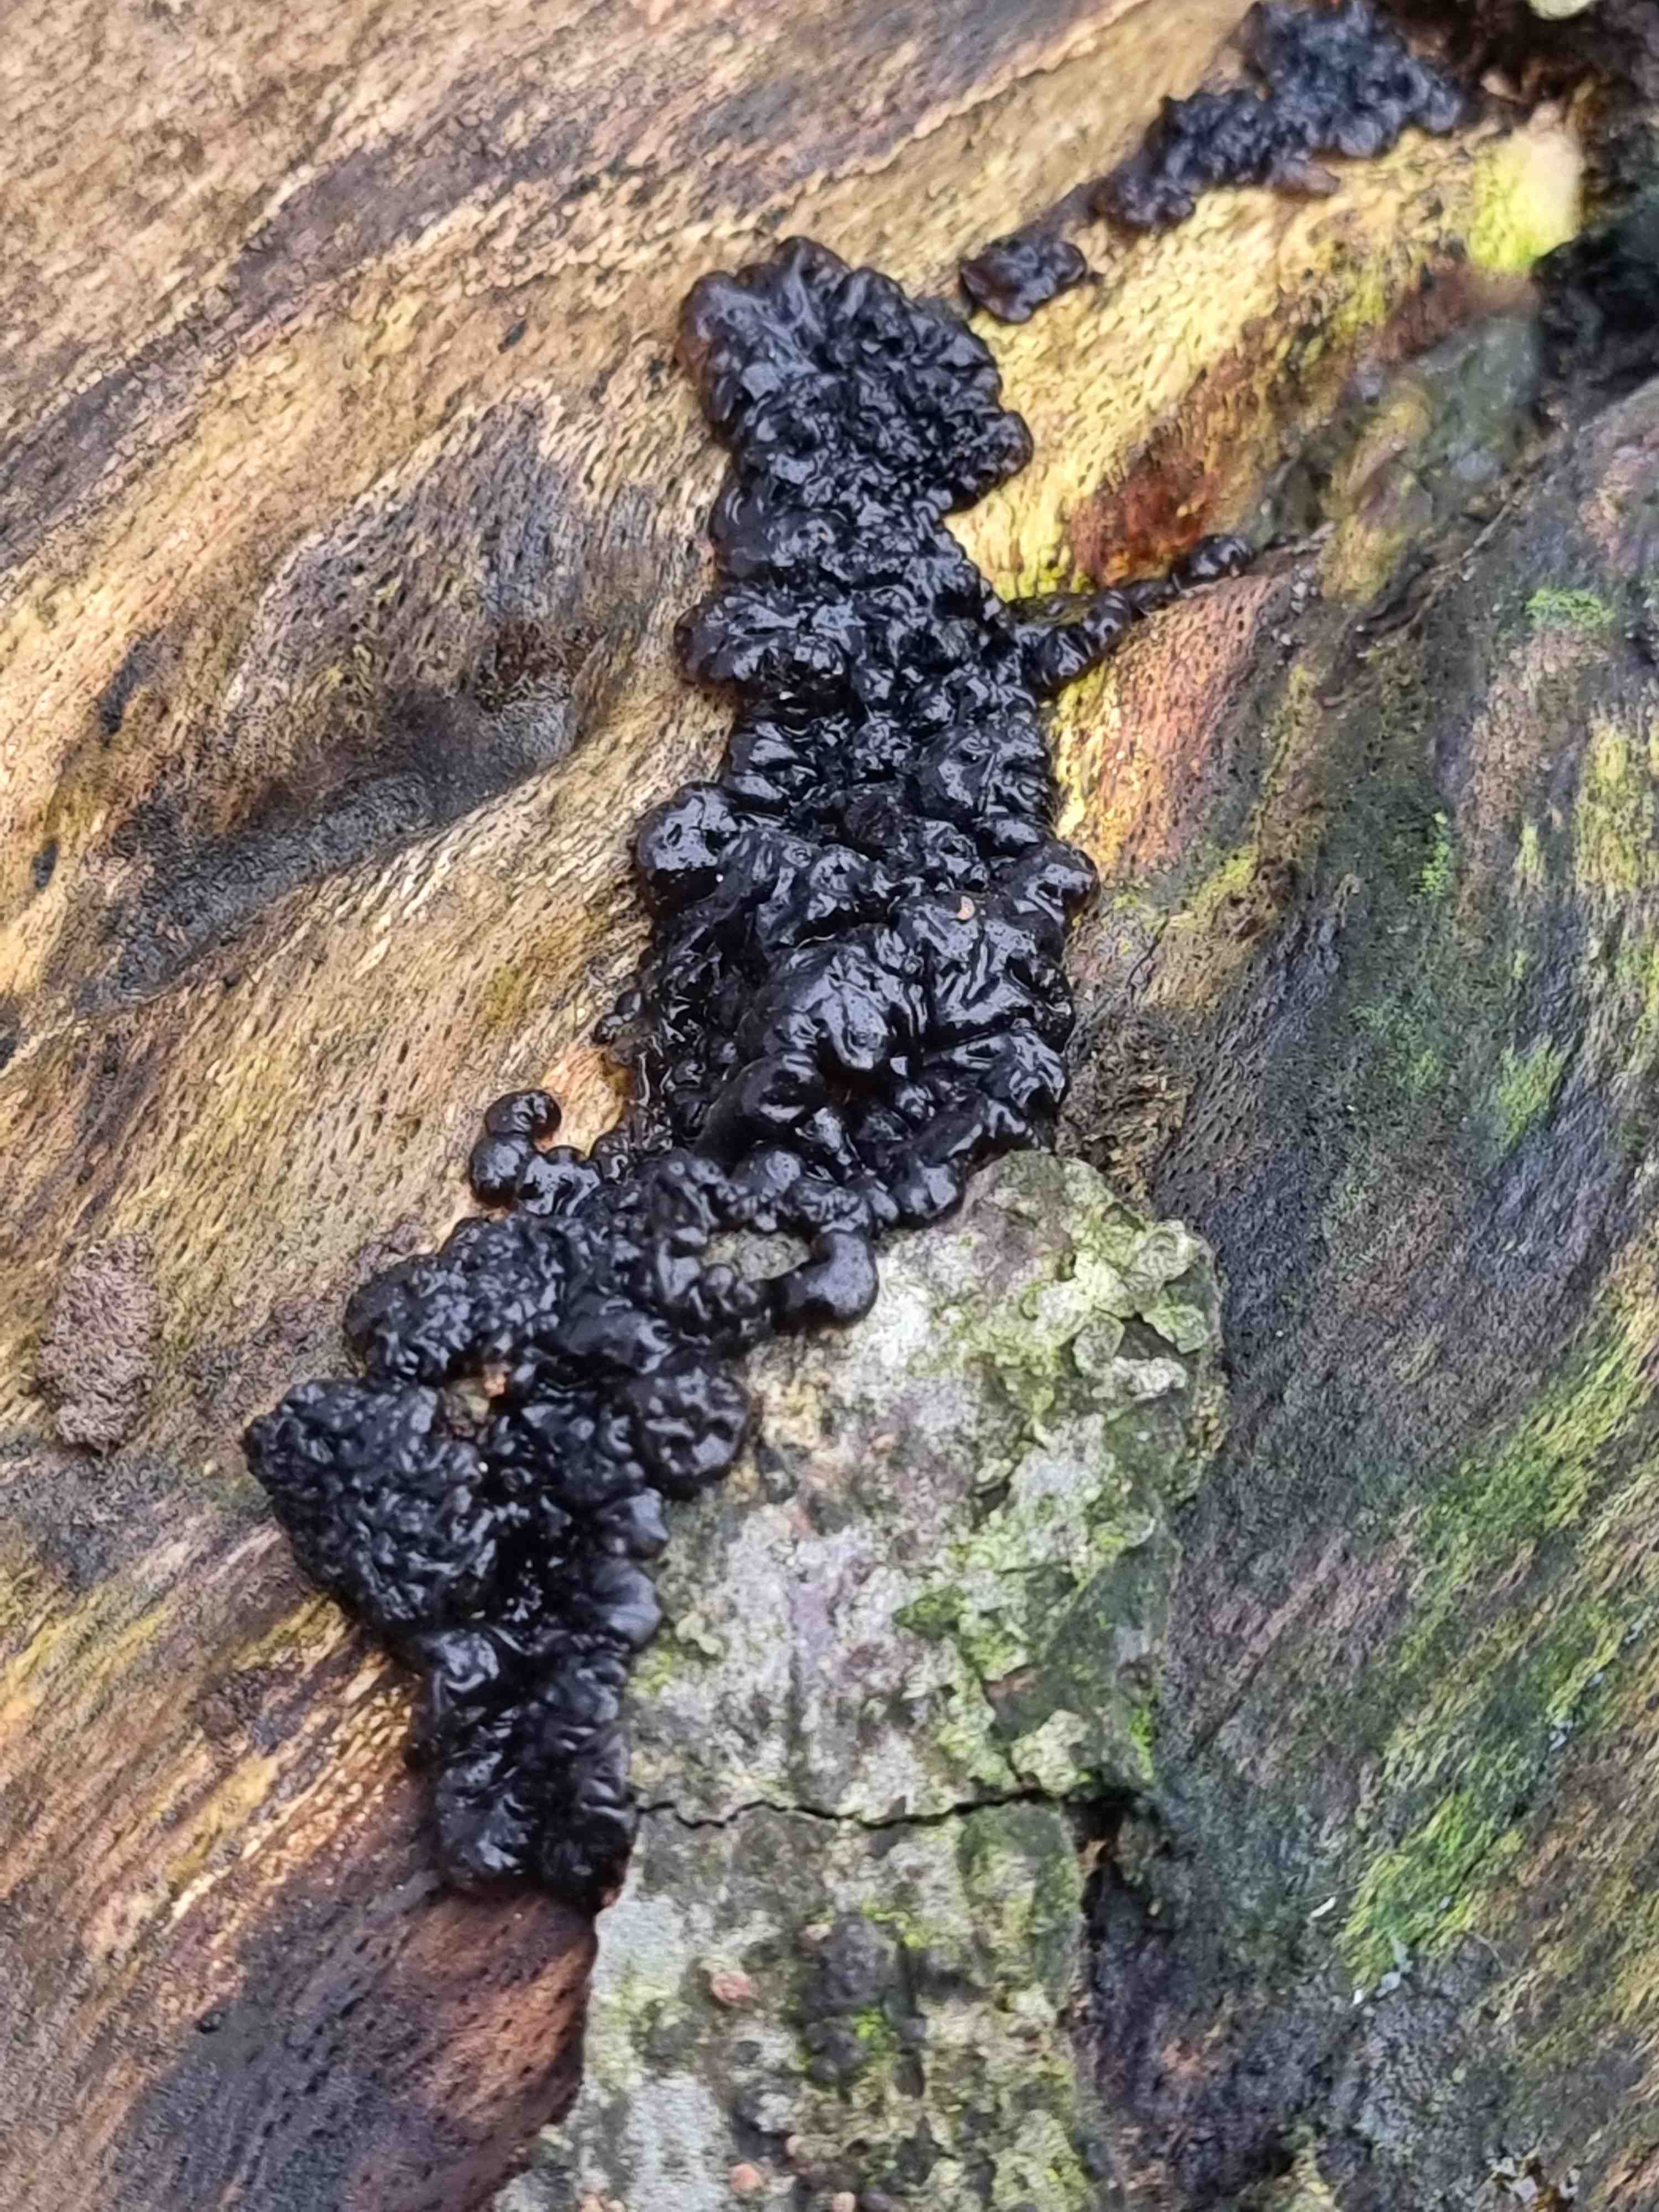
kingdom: Fungi
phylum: Basidiomycota
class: Agaricomycetes
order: Auriculariales
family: Auriculariaceae
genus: Exidia
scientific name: Exidia nigricans
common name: almindelig bævretop
